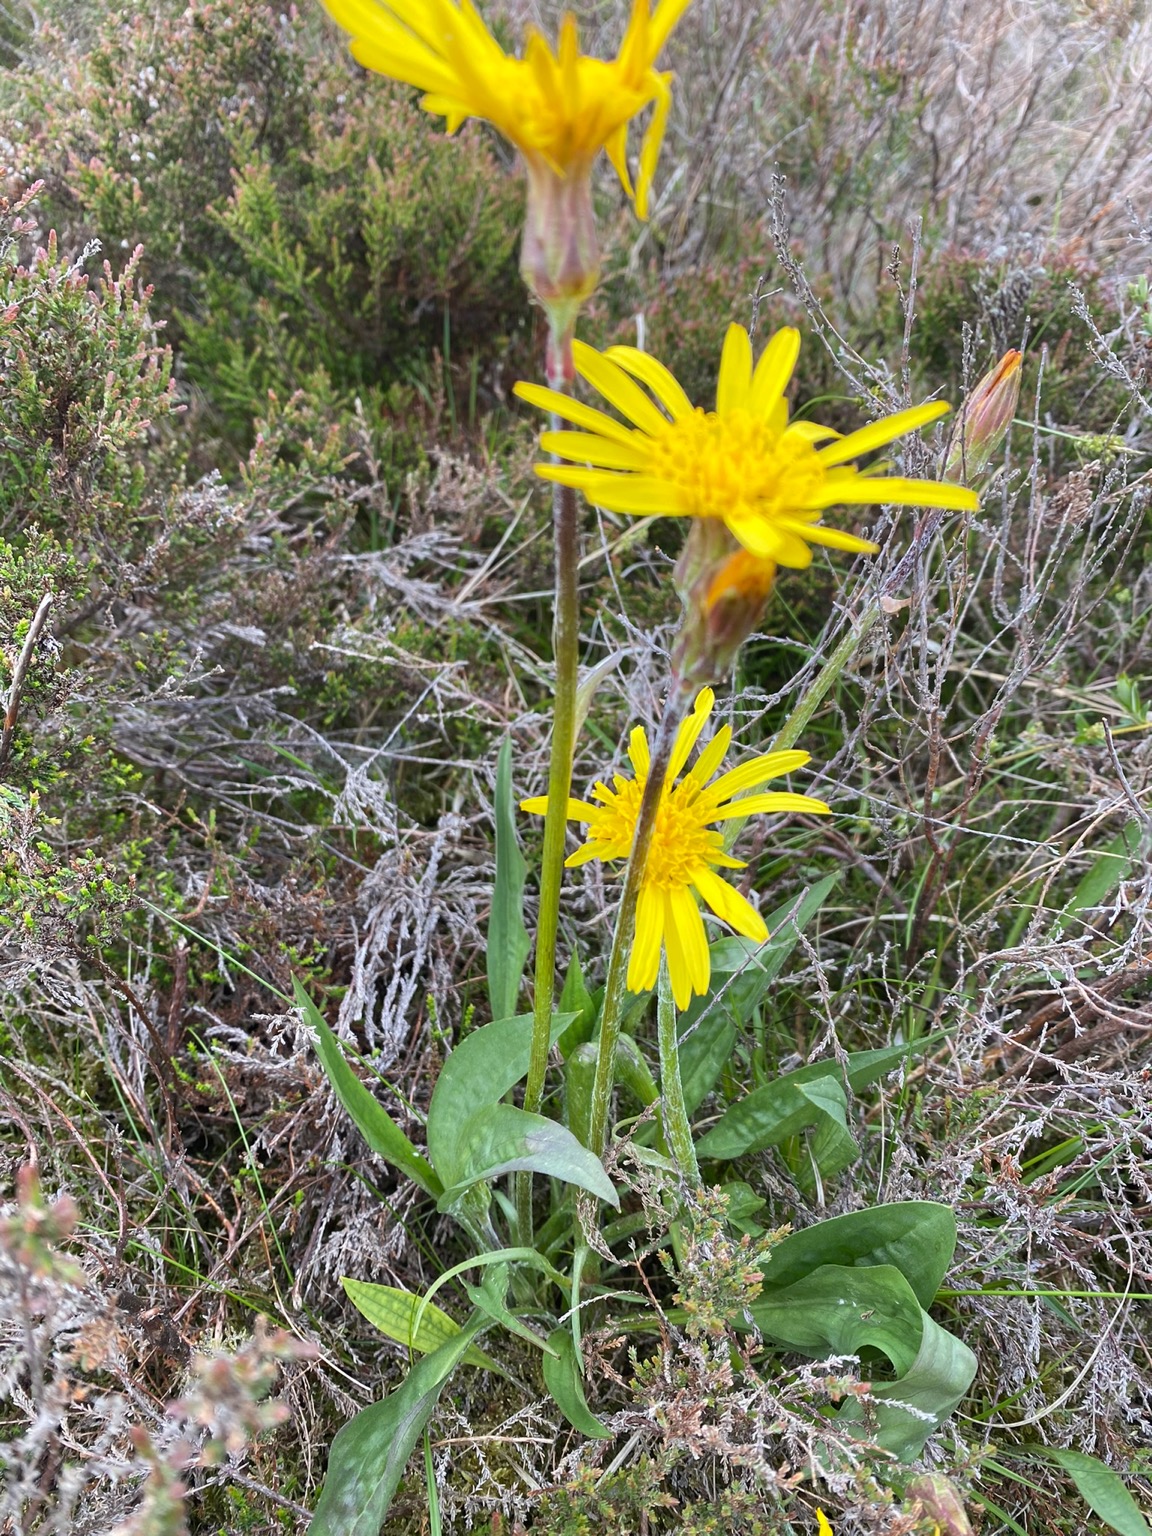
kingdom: Plantae
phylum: Tracheophyta
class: Magnoliopsida
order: Asterales
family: Asteraceae
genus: Scorzonera
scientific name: Scorzonera humilis
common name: Lav skorsoner
